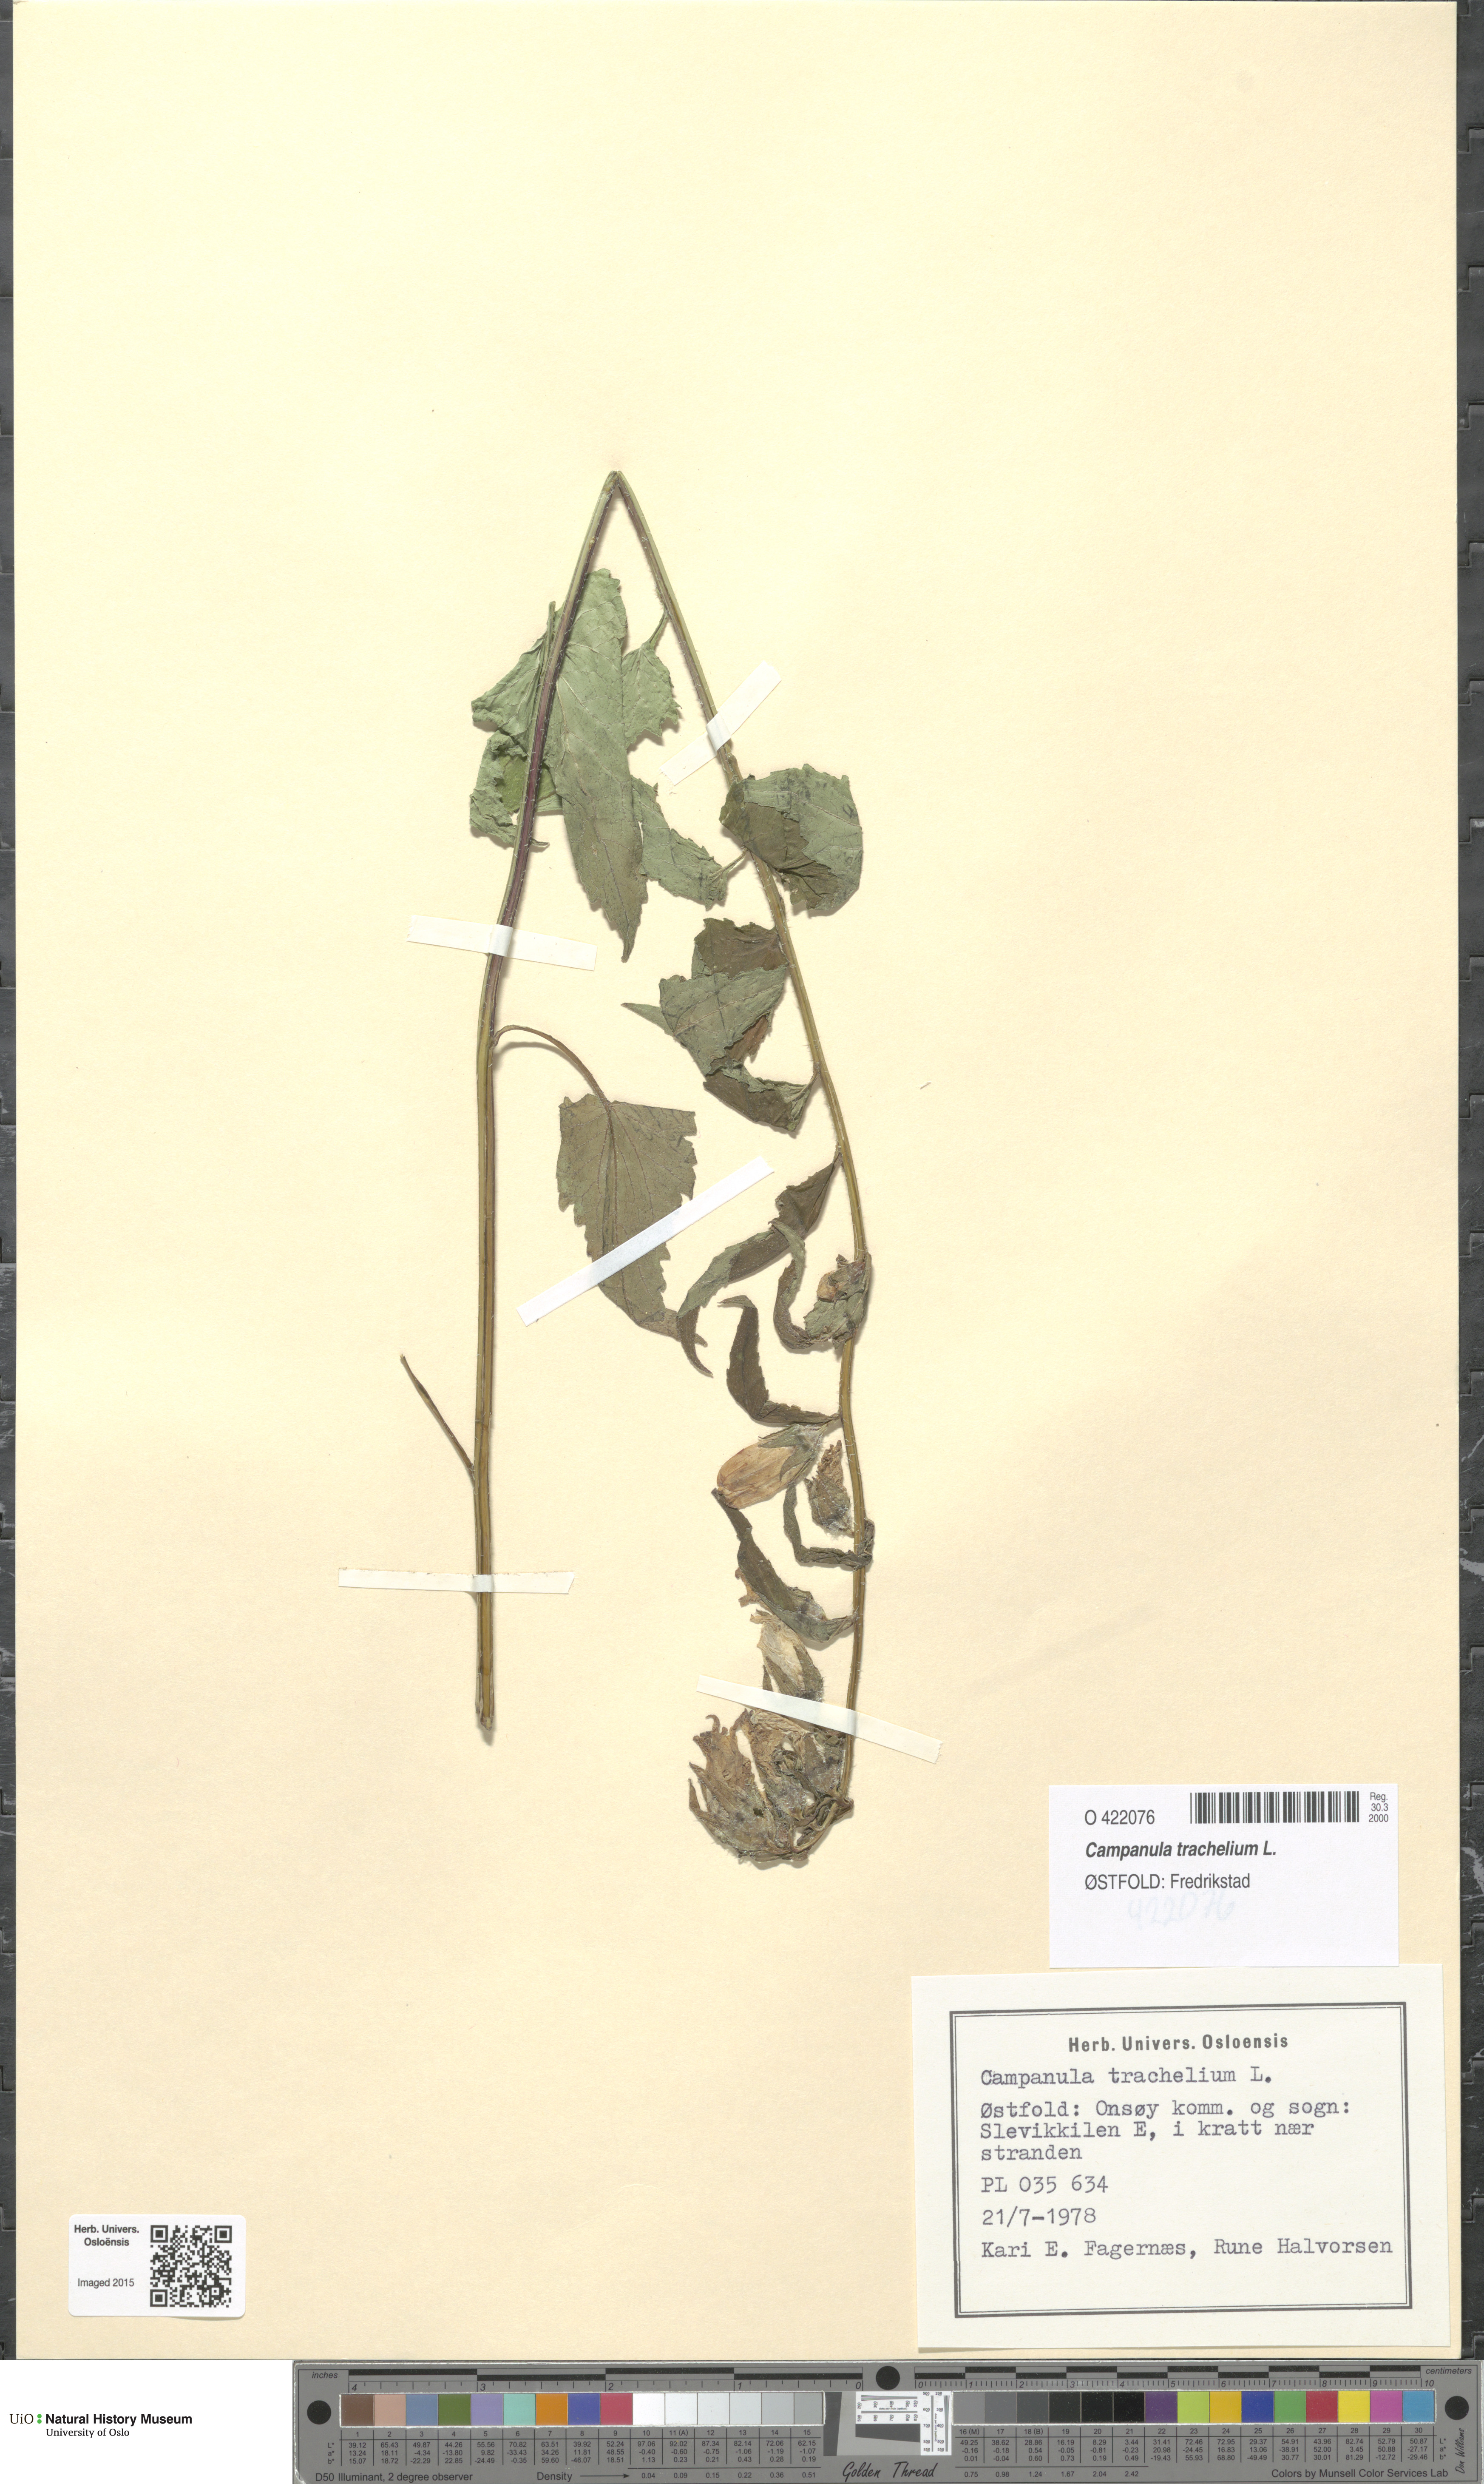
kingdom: Plantae
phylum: Tracheophyta
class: Magnoliopsida
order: Asterales
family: Campanulaceae
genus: Campanula
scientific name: Campanula trachelium
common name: Nettle-leaved bellflower
